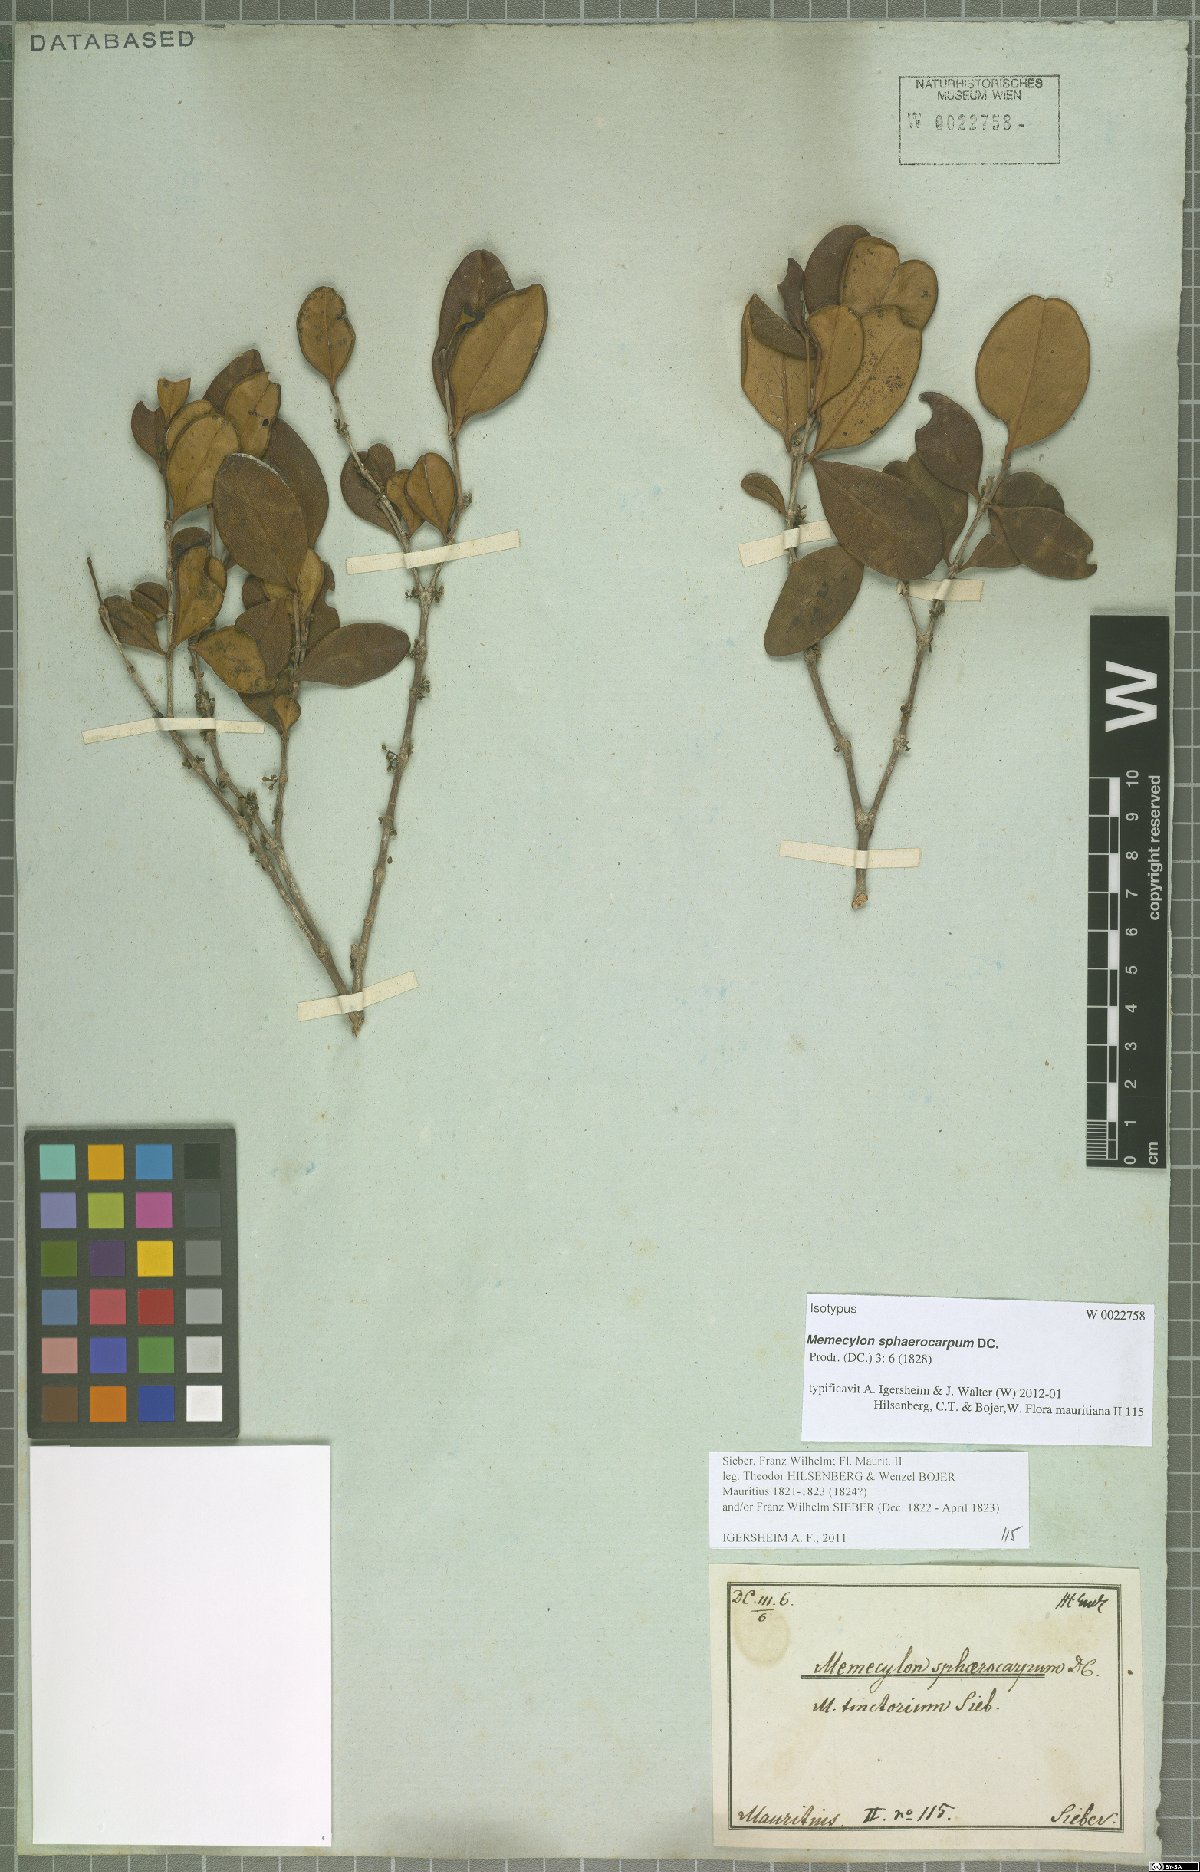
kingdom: Plantae
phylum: Tracheophyta
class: Magnoliopsida
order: Myrtales
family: Melastomataceae
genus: Memecylon
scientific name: Memecylon ovatifolium
